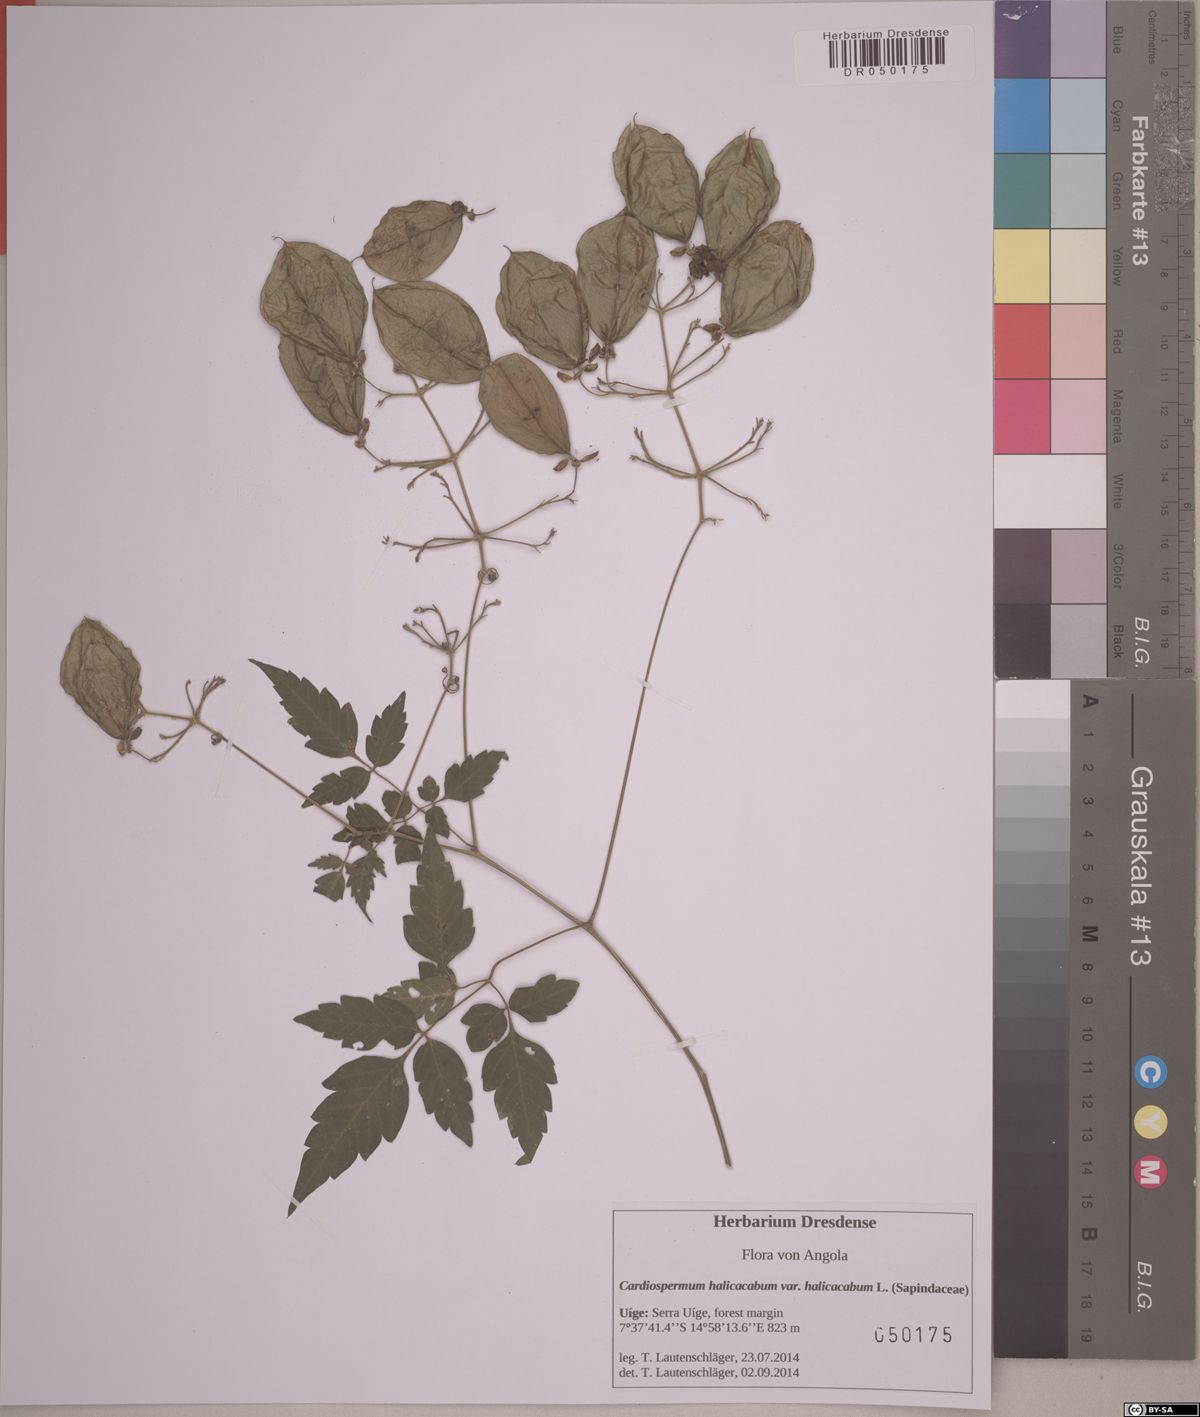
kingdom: Plantae
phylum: Tracheophyta
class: Magnoliopsida
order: Sapindales
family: Sapindaceae
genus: Cardiospermum
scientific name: Cardiospermum grandiflorum
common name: Balloon vine
